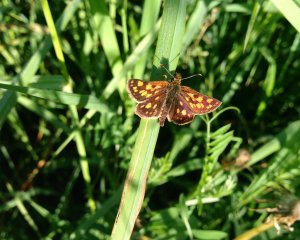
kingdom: Animalia
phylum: Arthropoda
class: Insecta
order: Lepidoptera
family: Hesperiidae
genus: Carterocephalus
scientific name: Carterocephalus palaemon
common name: Chequered Skipper
